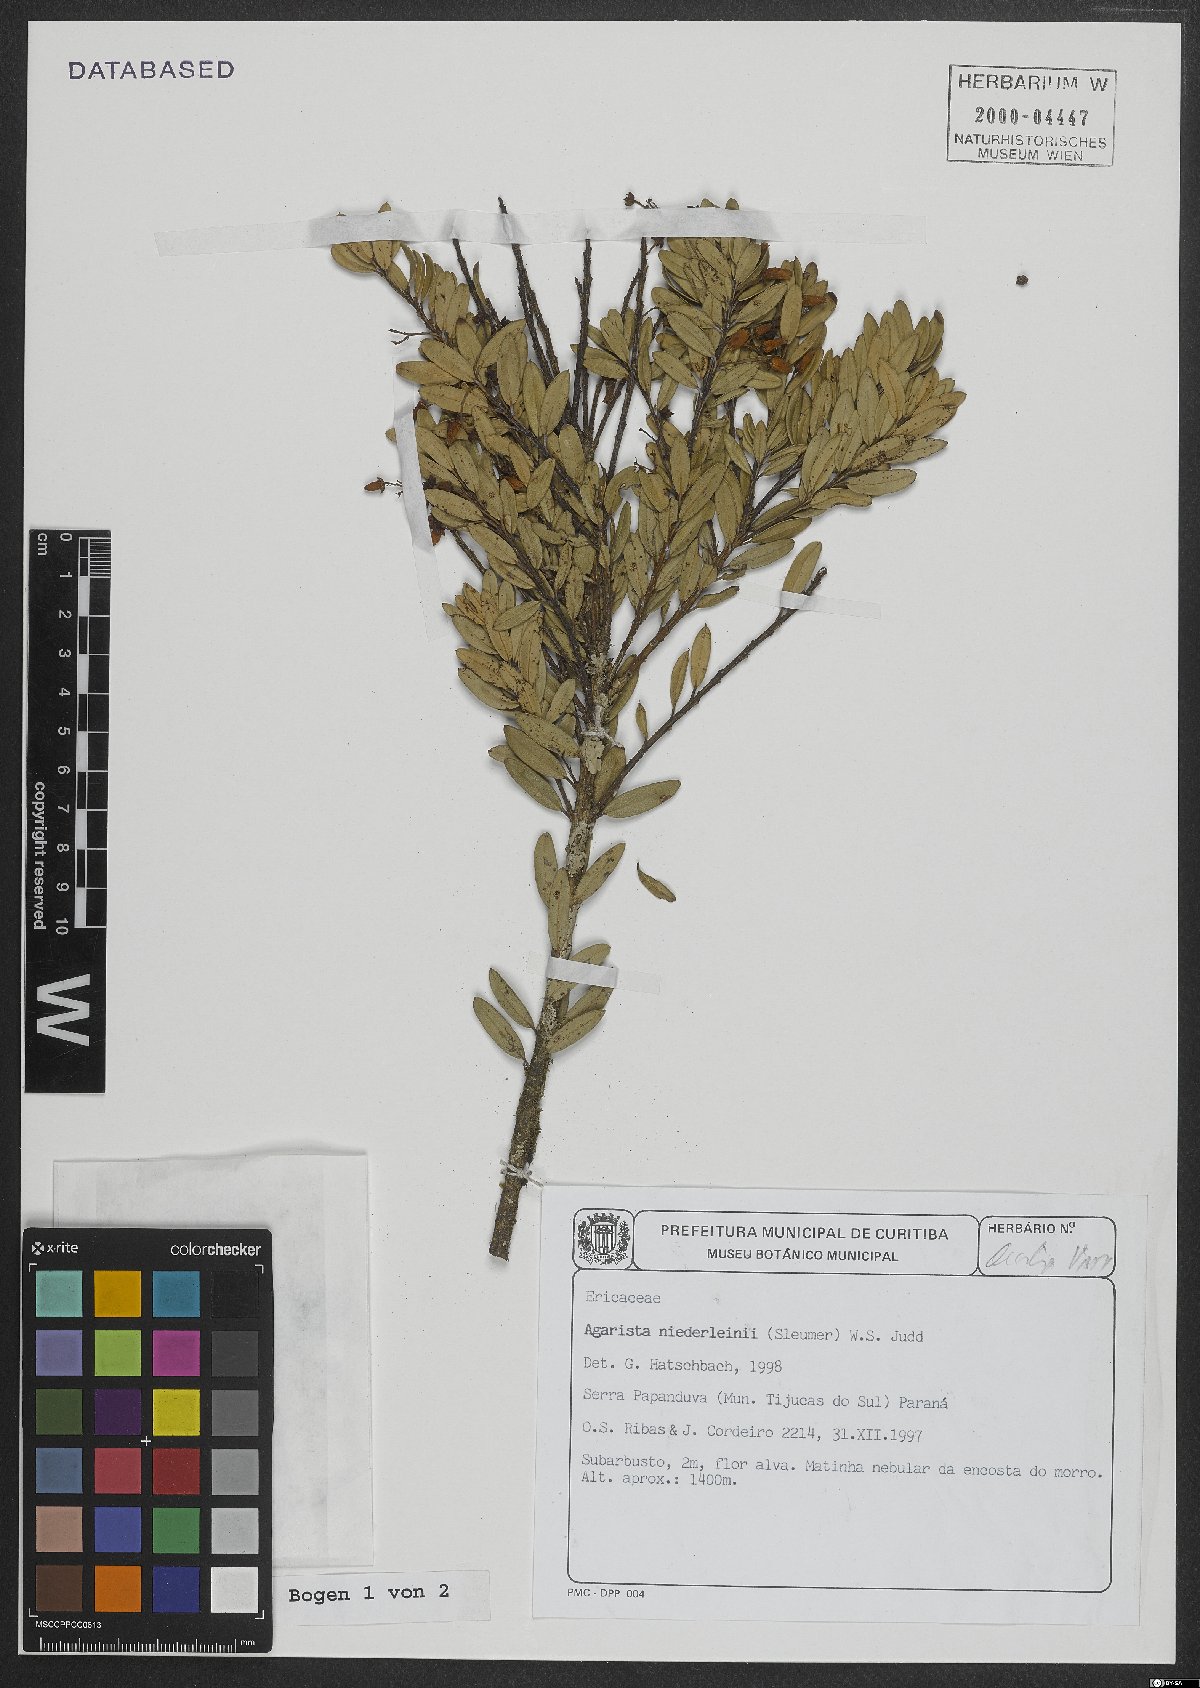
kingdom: Plantae
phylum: Tracheophyta
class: Magnoliopsida
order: Ericales
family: Ericaceae
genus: Agarista
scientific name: Agarista niederleinii
